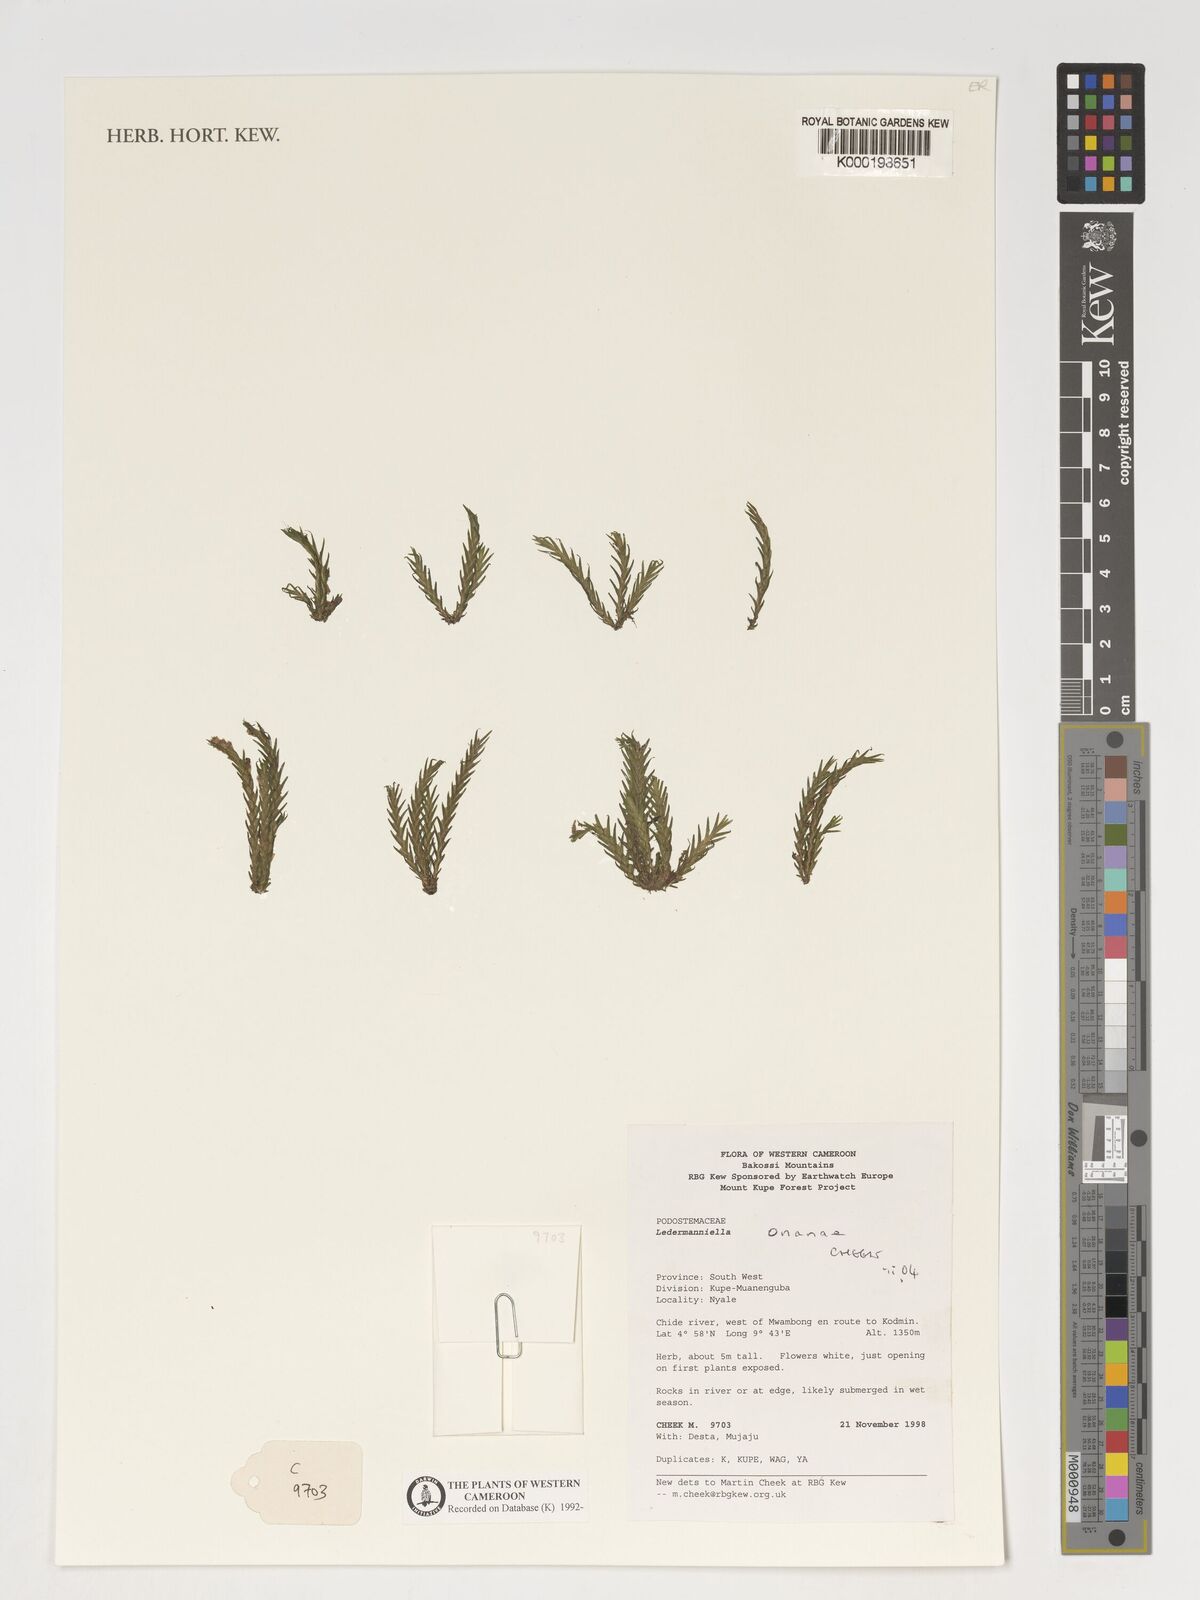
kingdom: Plantae
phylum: Tracheophyta
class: Magnoliopsida
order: Malpighiales
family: Podostemaceae
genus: Ledermanniella
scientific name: Ledermanniella onanae
